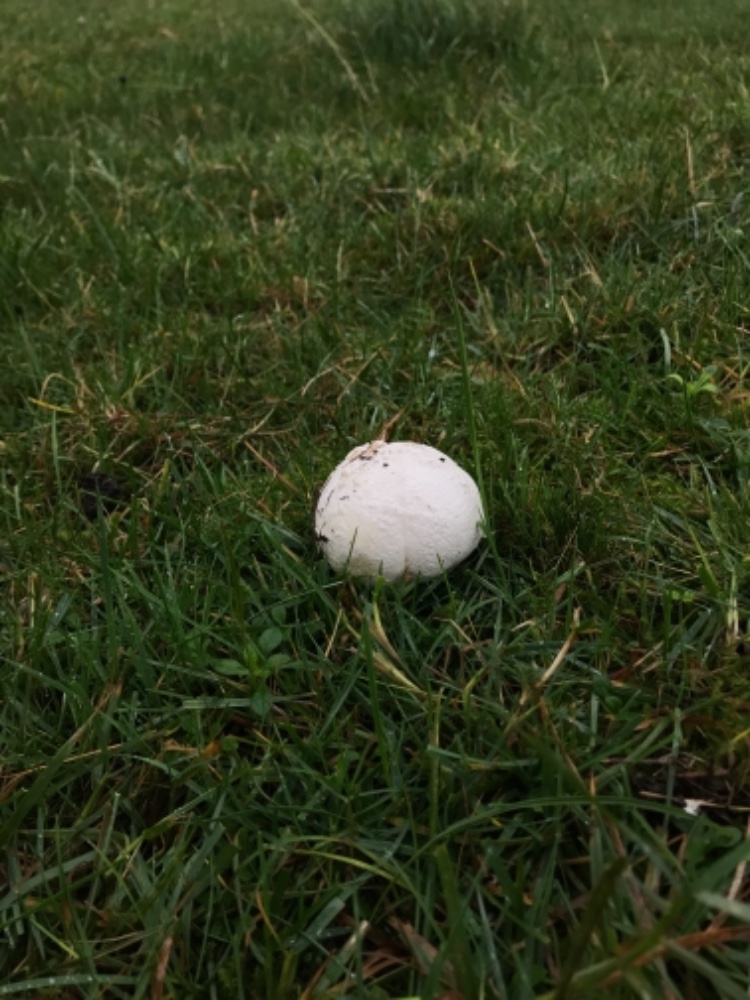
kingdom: Fungi
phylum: Basidiomycota
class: Agaricomycetes
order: Agaricales
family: Lycoperdaceae
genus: Bovista
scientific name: Bovista nigrescens
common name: sortagtig bovist
